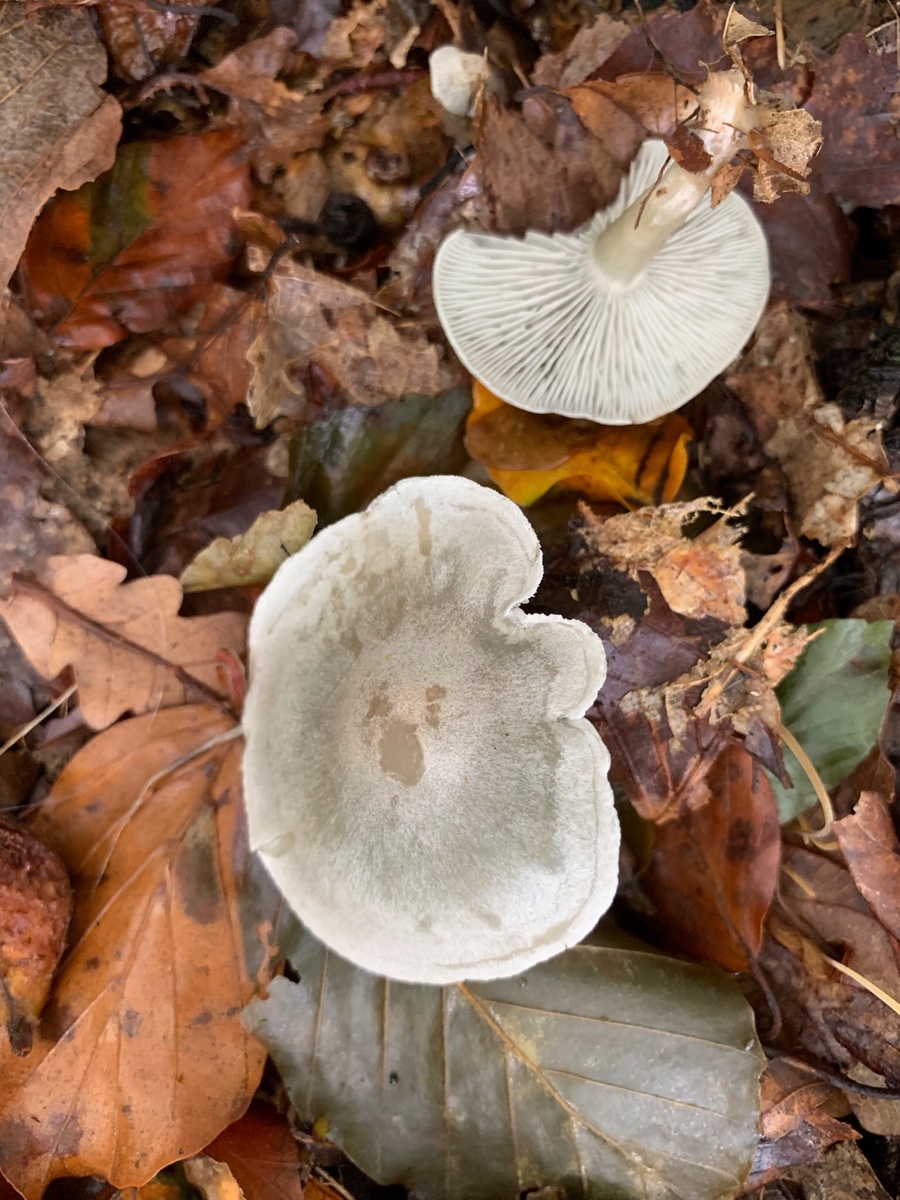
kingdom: Fungi
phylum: Basidiomycota
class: Agaricomycetes
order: Agaricales
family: Tricholomataceae
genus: Clitocybe
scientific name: Clitocybe odora
